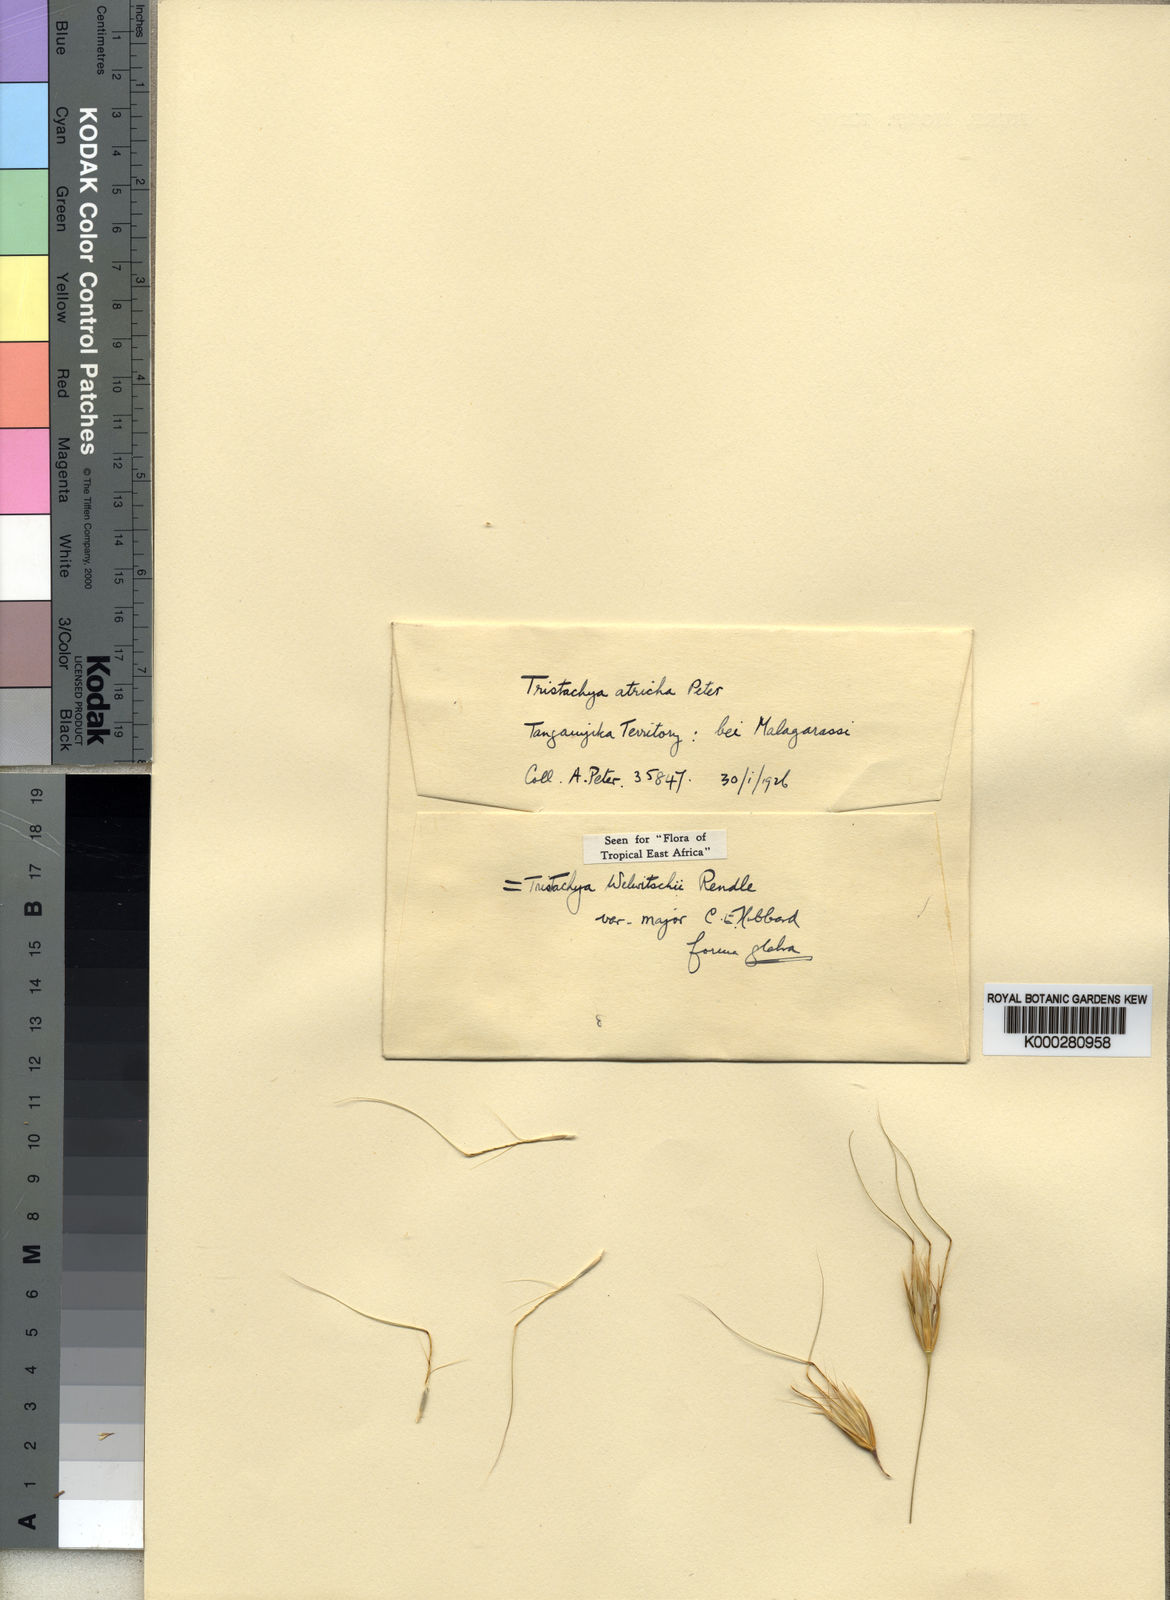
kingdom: Plantae
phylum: Tracheophyta
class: Liliopsida
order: Poales
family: Poaceae
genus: Tristachya
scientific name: Tristachya nodiglumis
